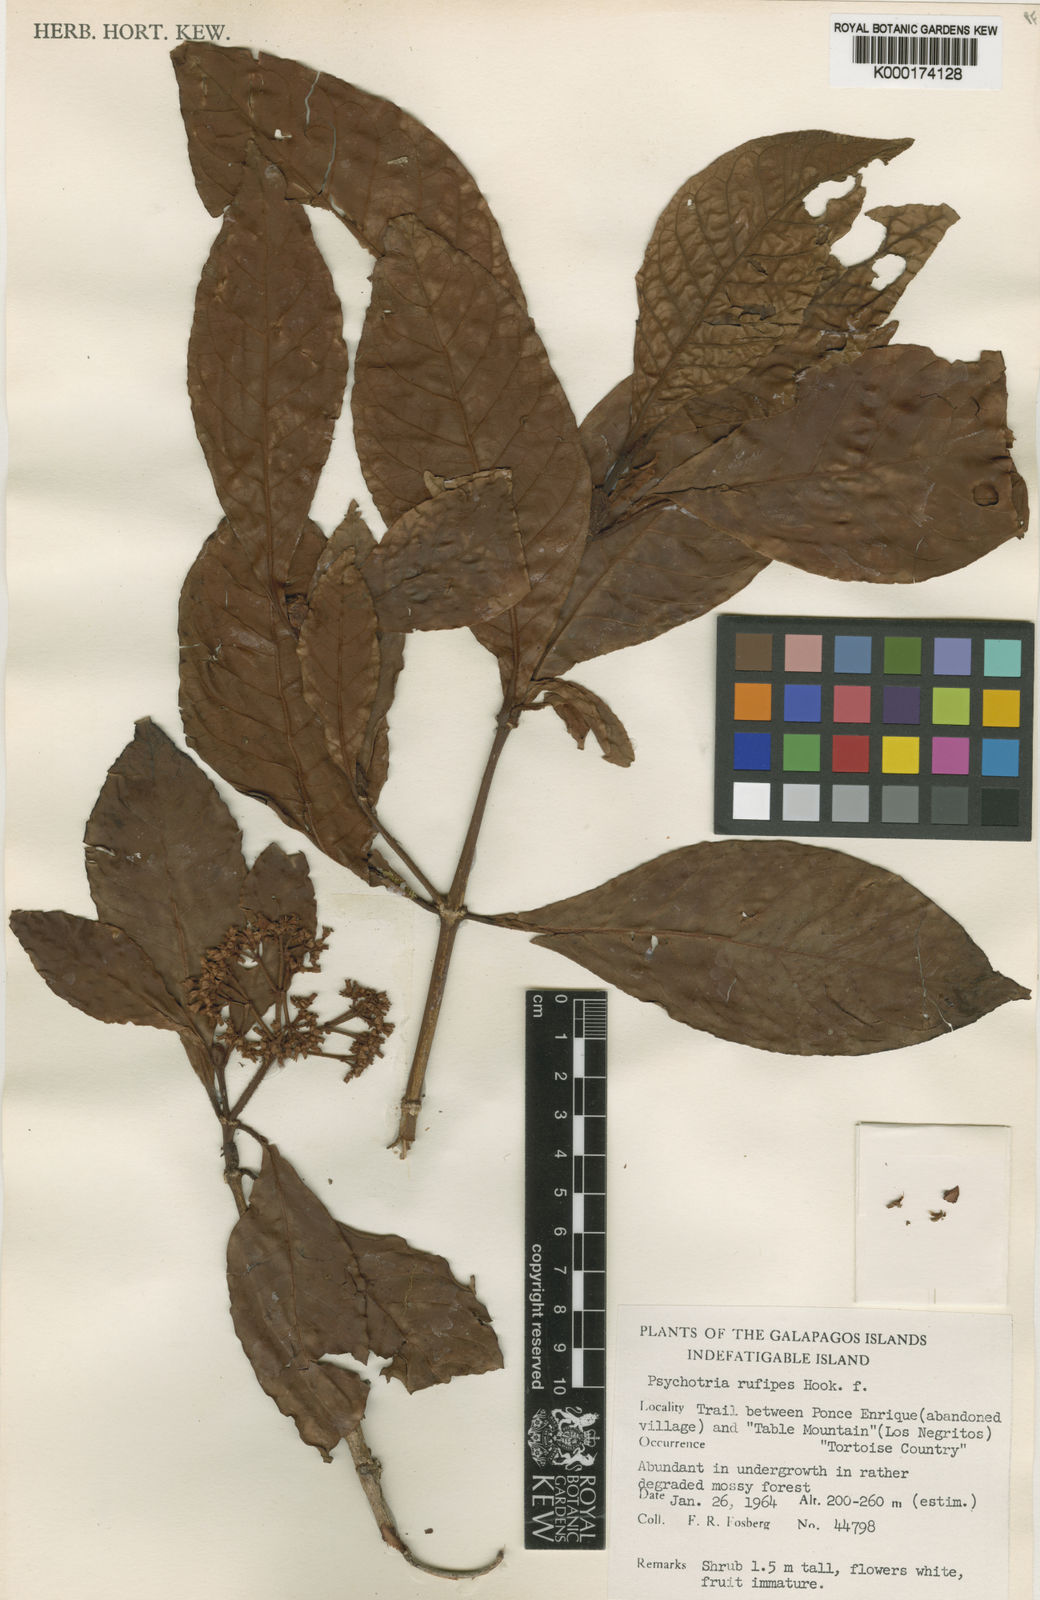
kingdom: Plantae
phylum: Tracheophyta
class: Magnoliopsida
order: Gentianales
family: Rubiaceae
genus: Psychotria
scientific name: Psychotria rufipes
